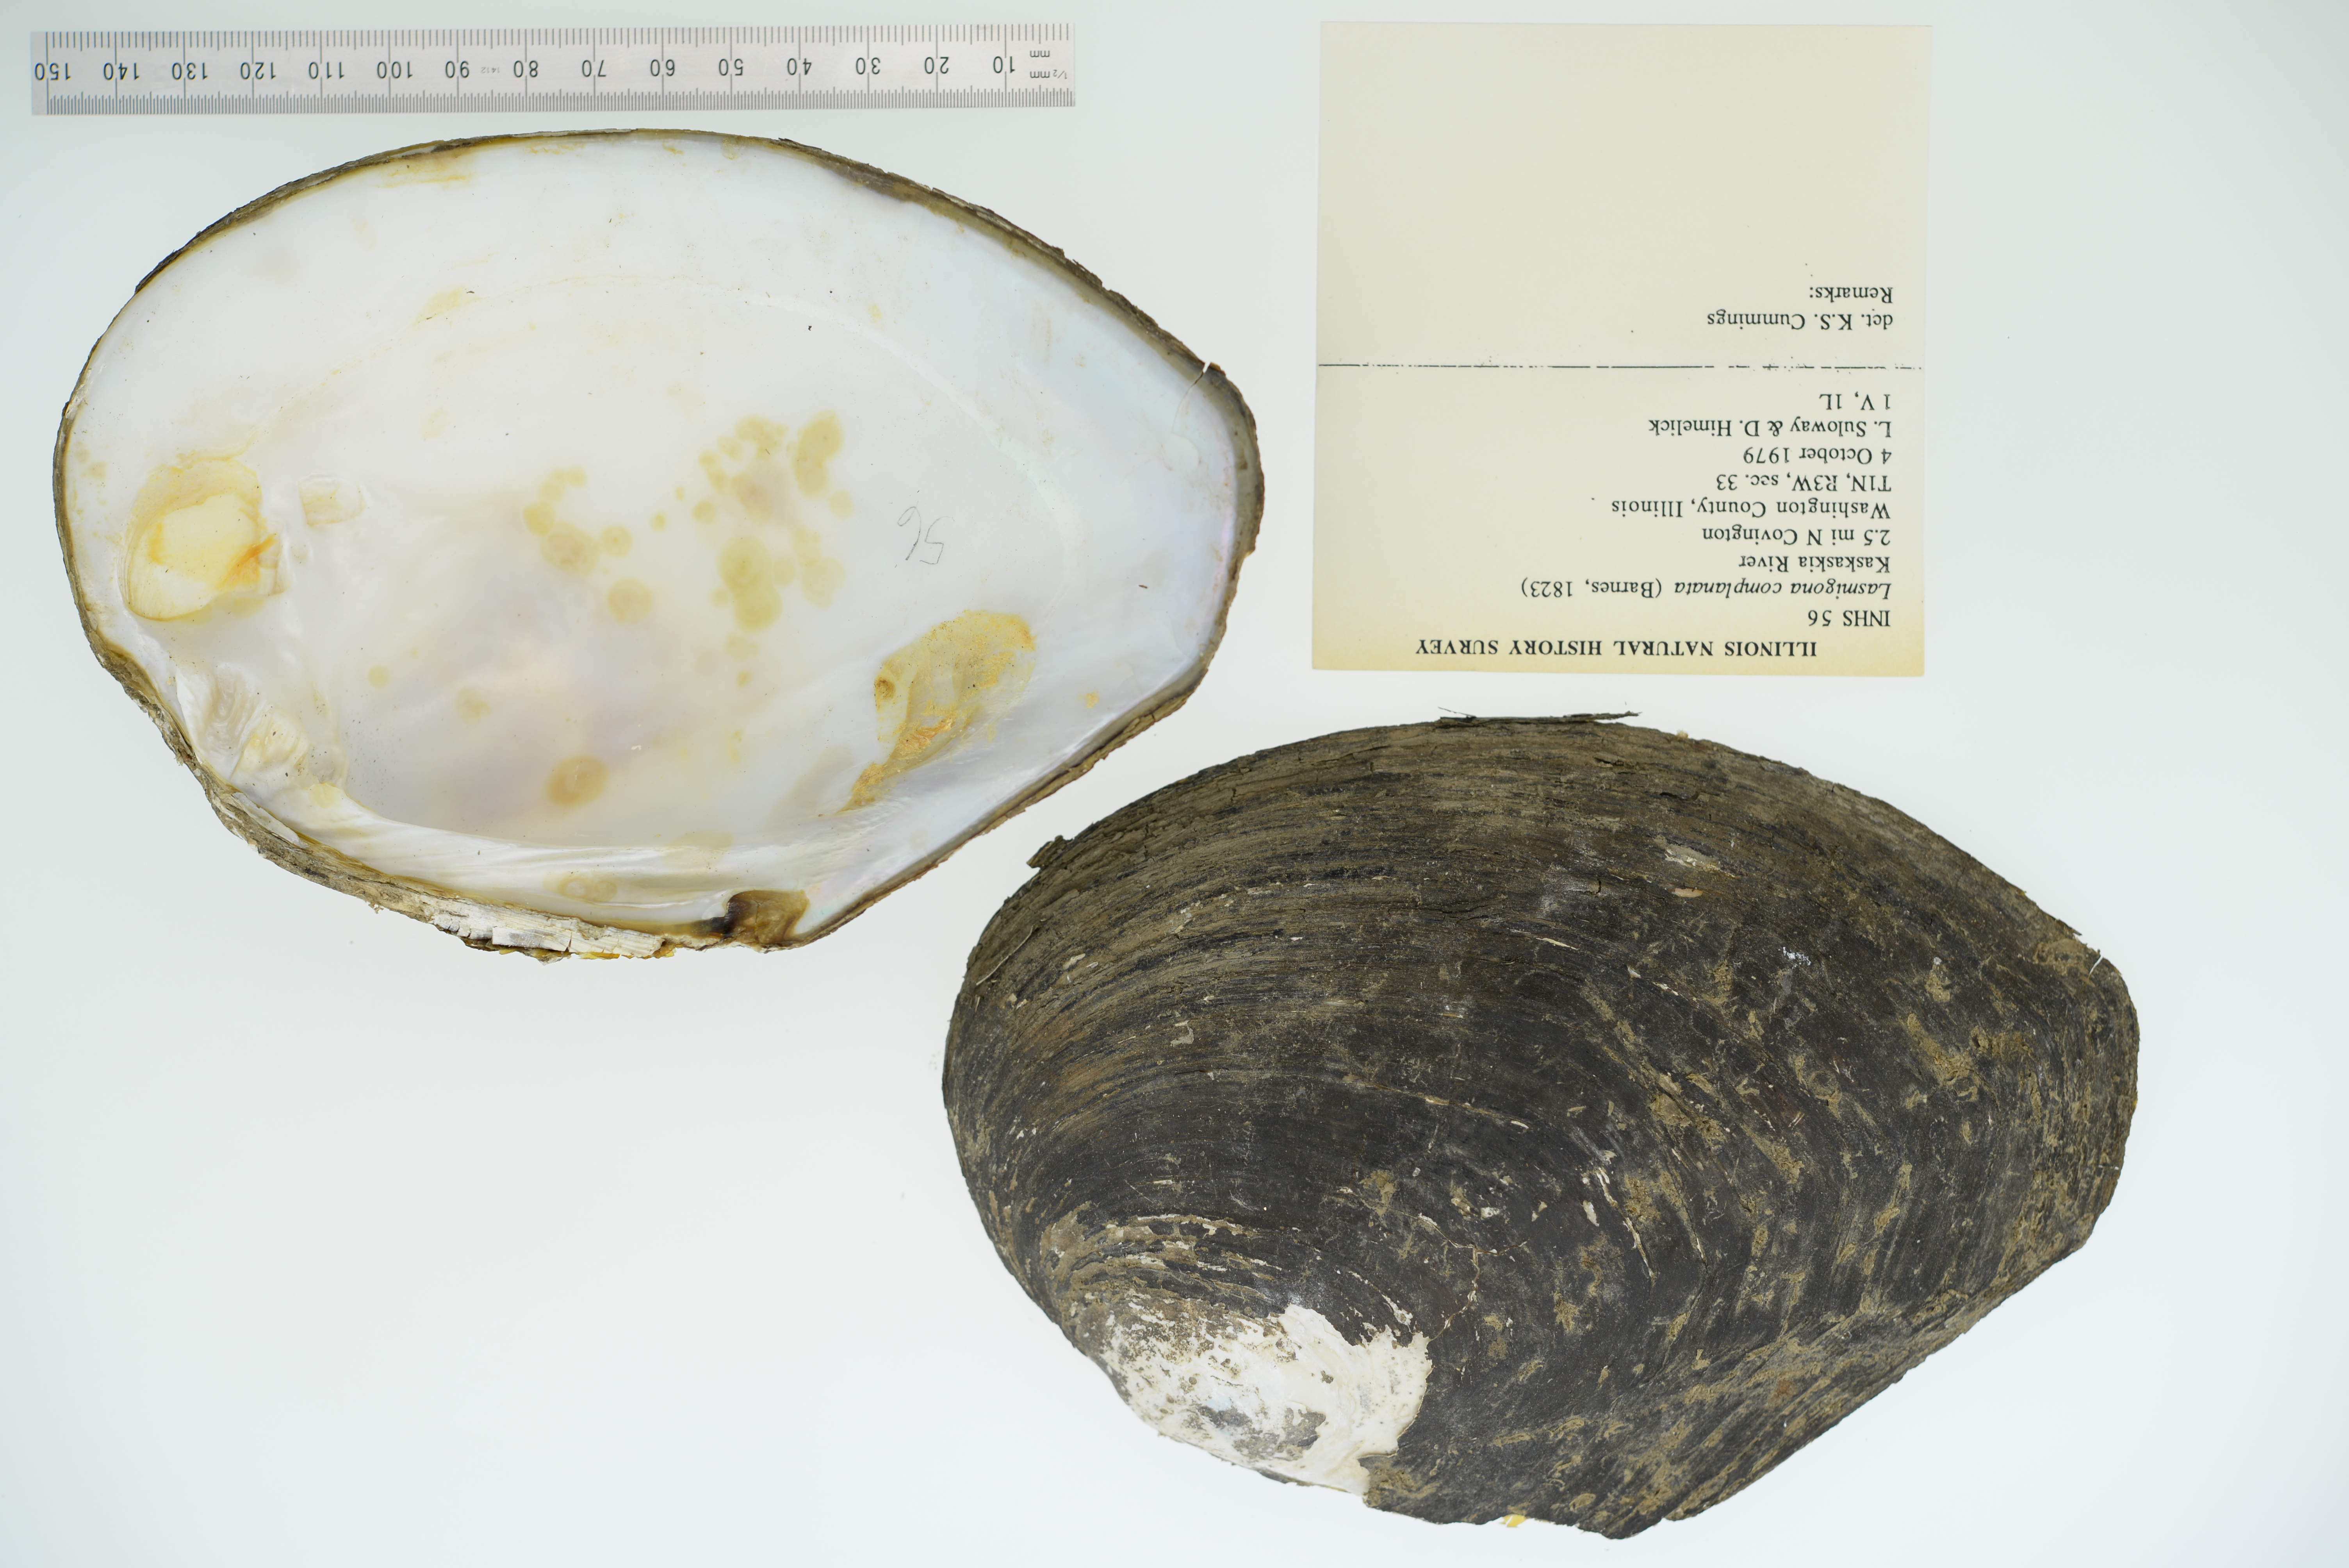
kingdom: Animalia
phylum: Mollusca
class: Bivalvia
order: Unionida
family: Unionidae
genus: Lasmigona
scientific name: Lasmigona complanata
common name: White heelsplitter
